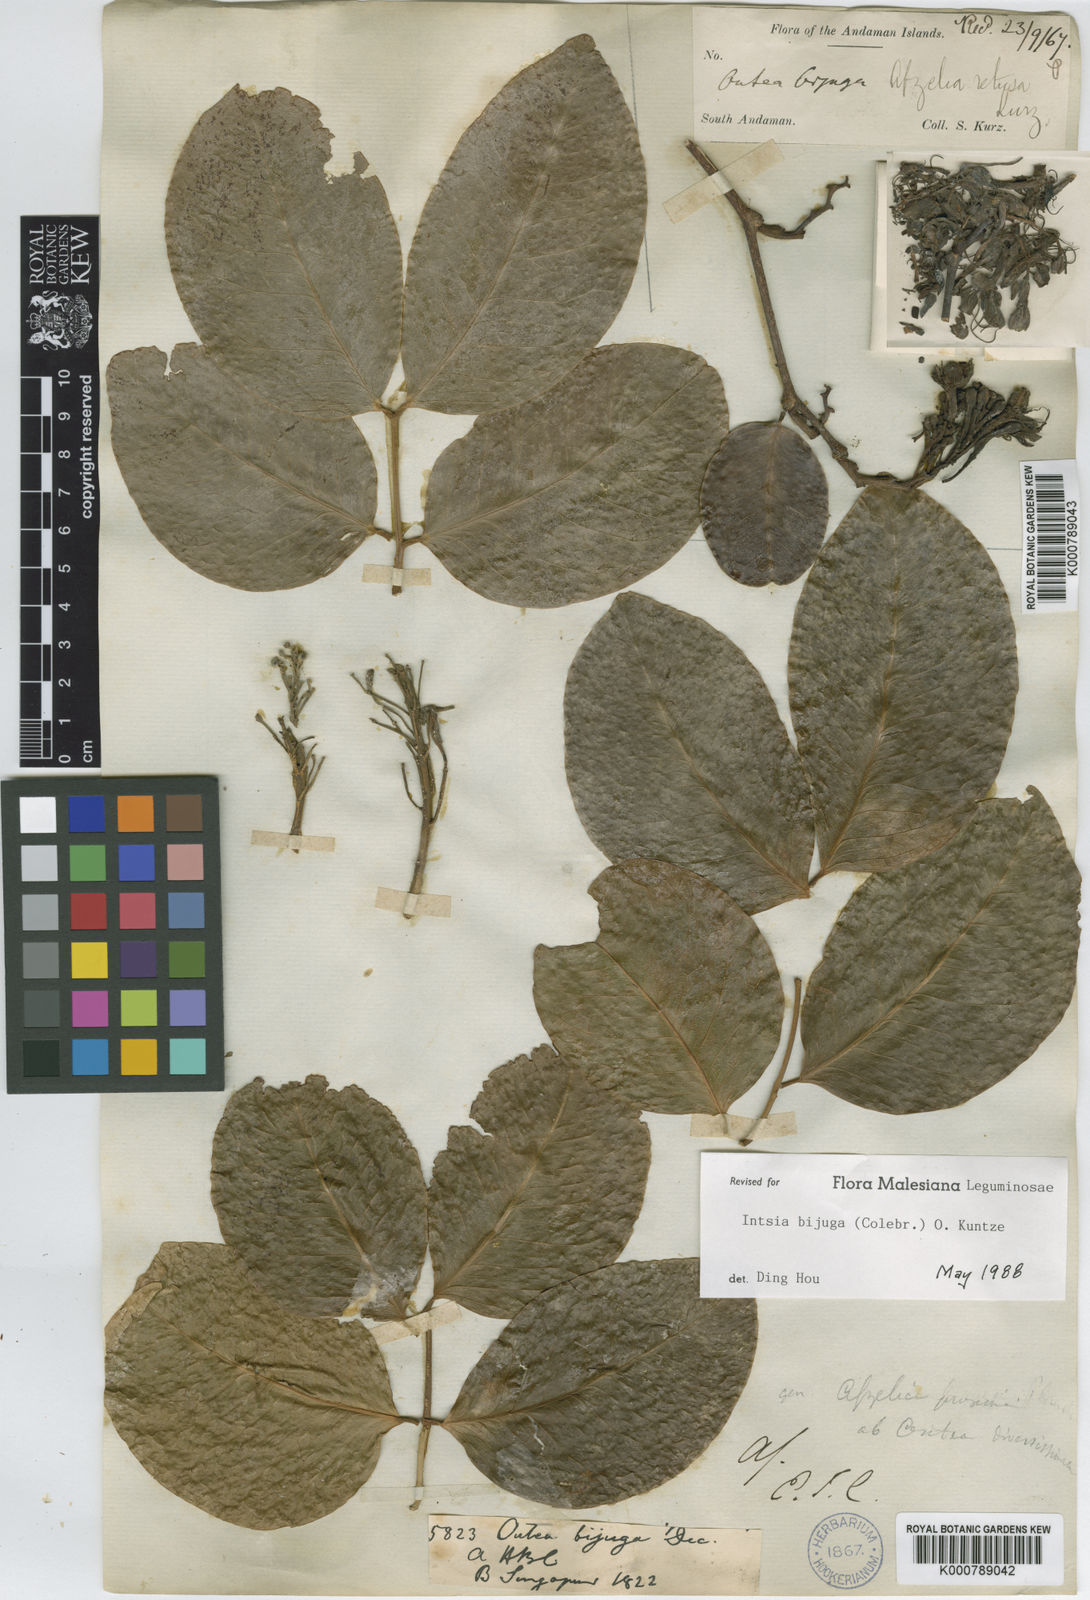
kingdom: Plantae
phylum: Tracheophyta
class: Magnoliopsida
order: Fabales
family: Fabaceae
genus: Intsia
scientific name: Intsia bijuga
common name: Moluccan ironwood
